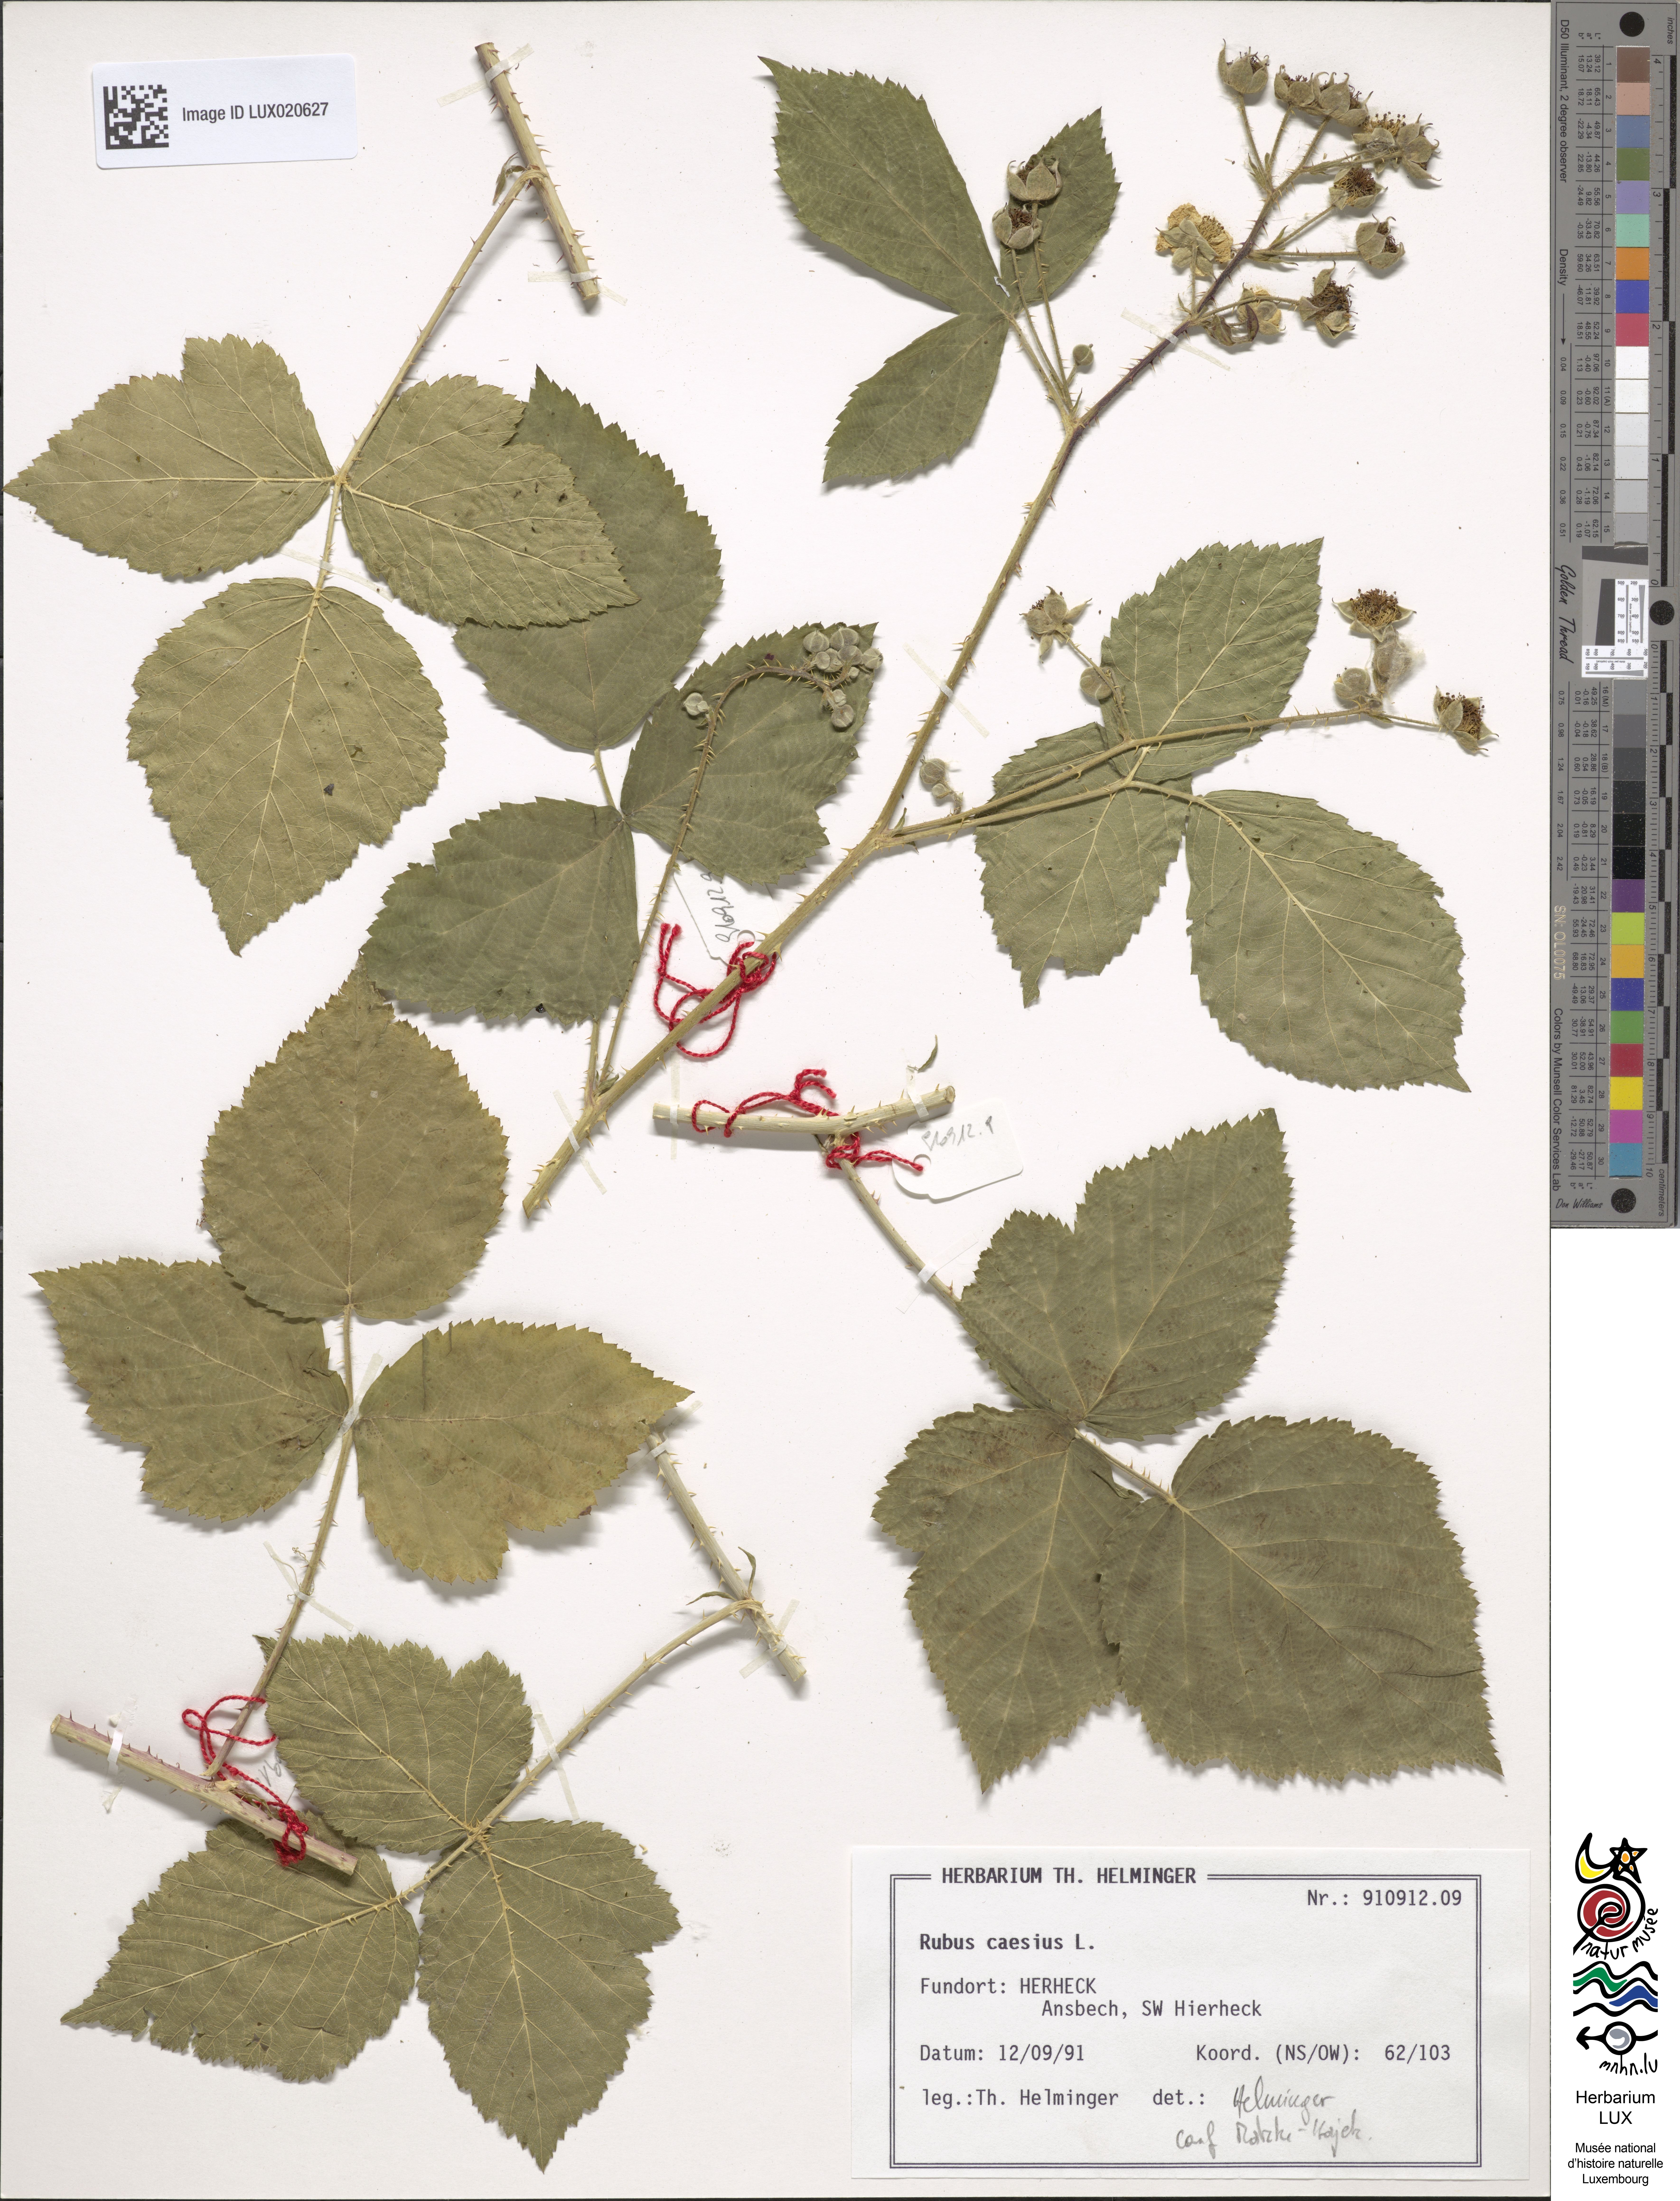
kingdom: Plantae
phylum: Tracheophyta
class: Magnoliopsida
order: Rosales
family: Rosaceae
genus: Rubus
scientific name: Rubus caesius
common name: Dewberry
